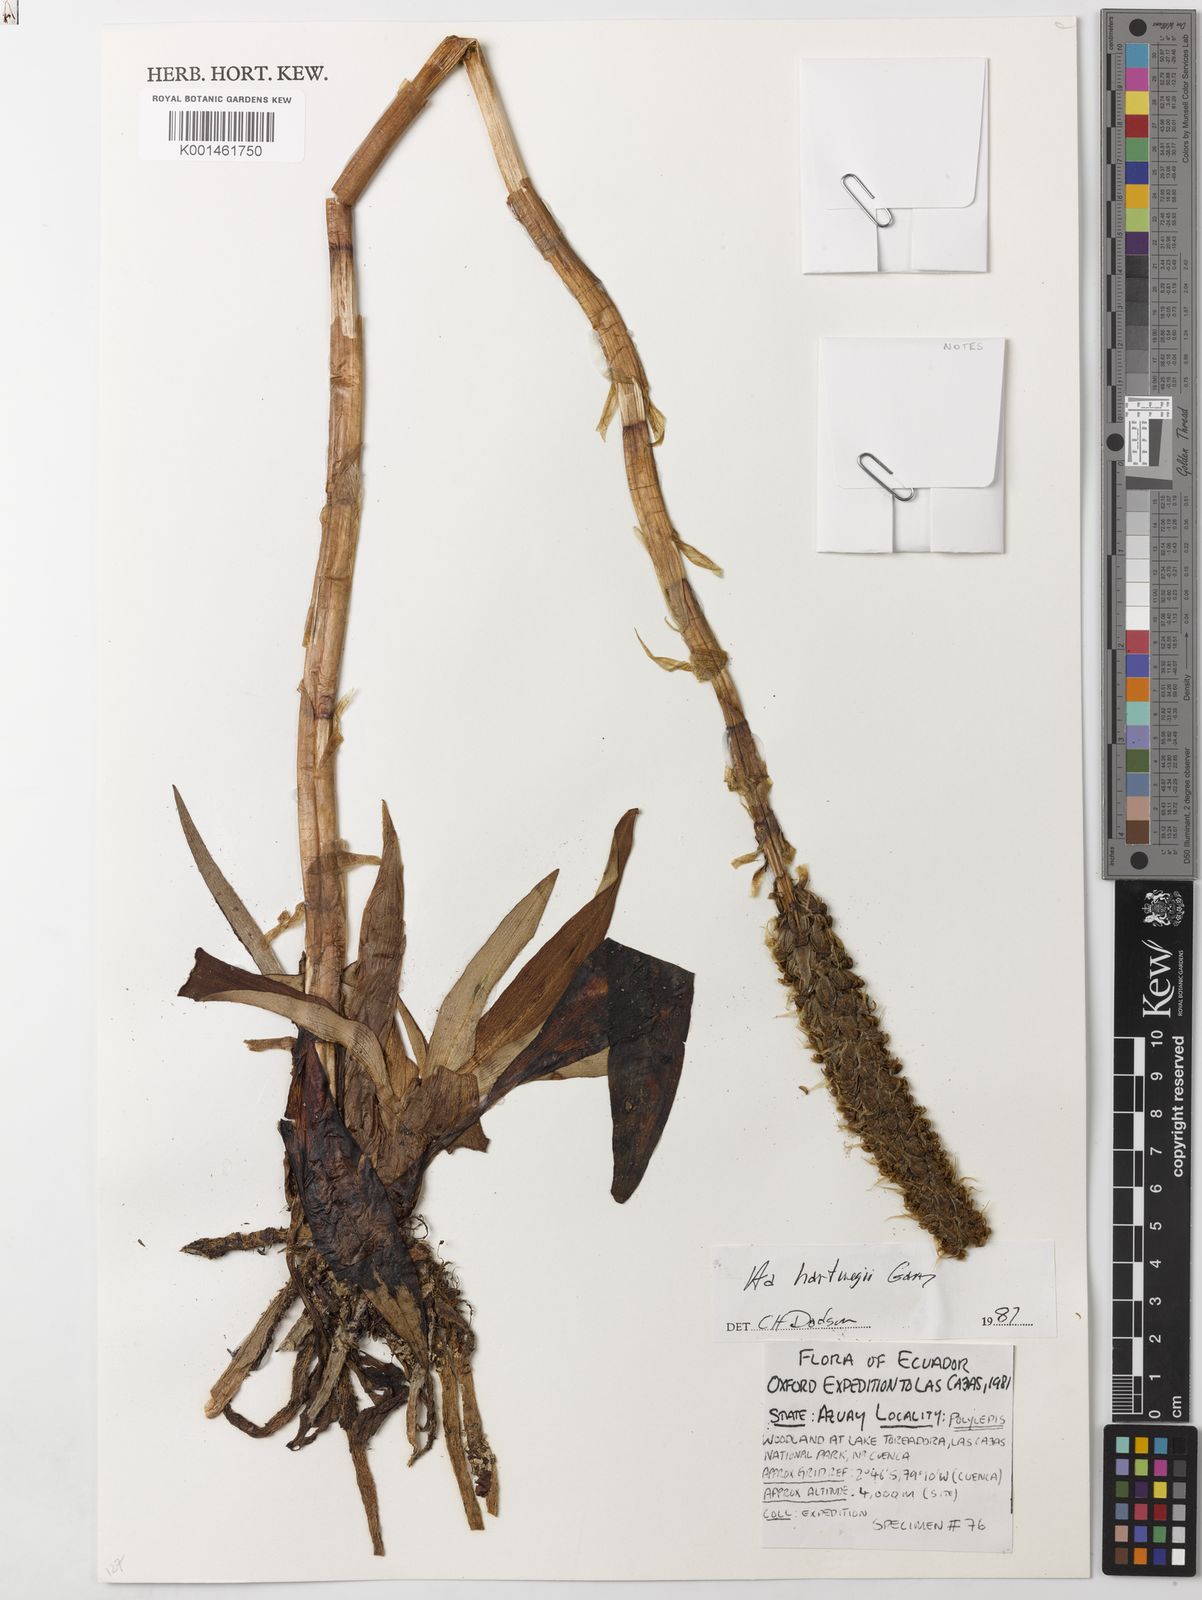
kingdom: Plantae
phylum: Tracheophyta
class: Liliopsida
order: Asparagales
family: Orchidaceae
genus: Aa
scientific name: Aa maderoi
